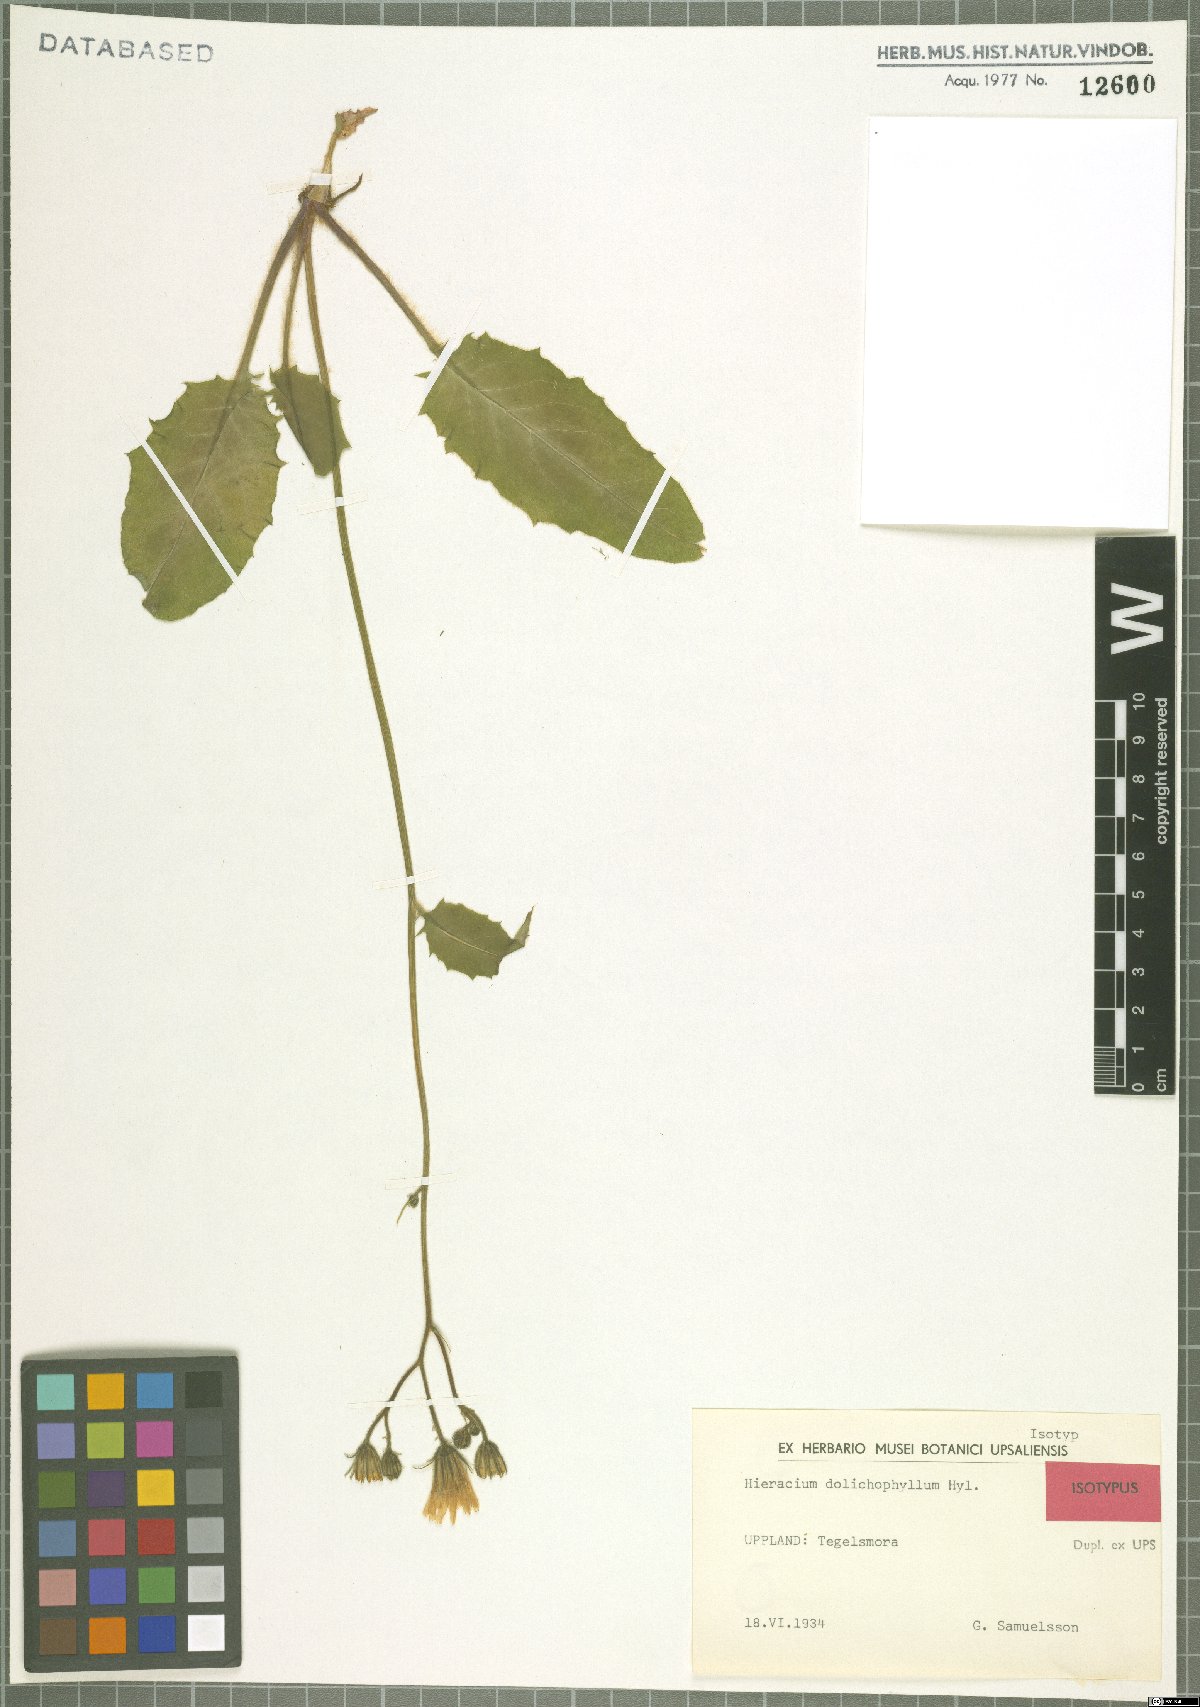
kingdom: Plantae
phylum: Tracheophyta
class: Magnoliopsida
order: Asterales
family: Asteraceae
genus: Hieracium
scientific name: Hieracium dolichophyllum
